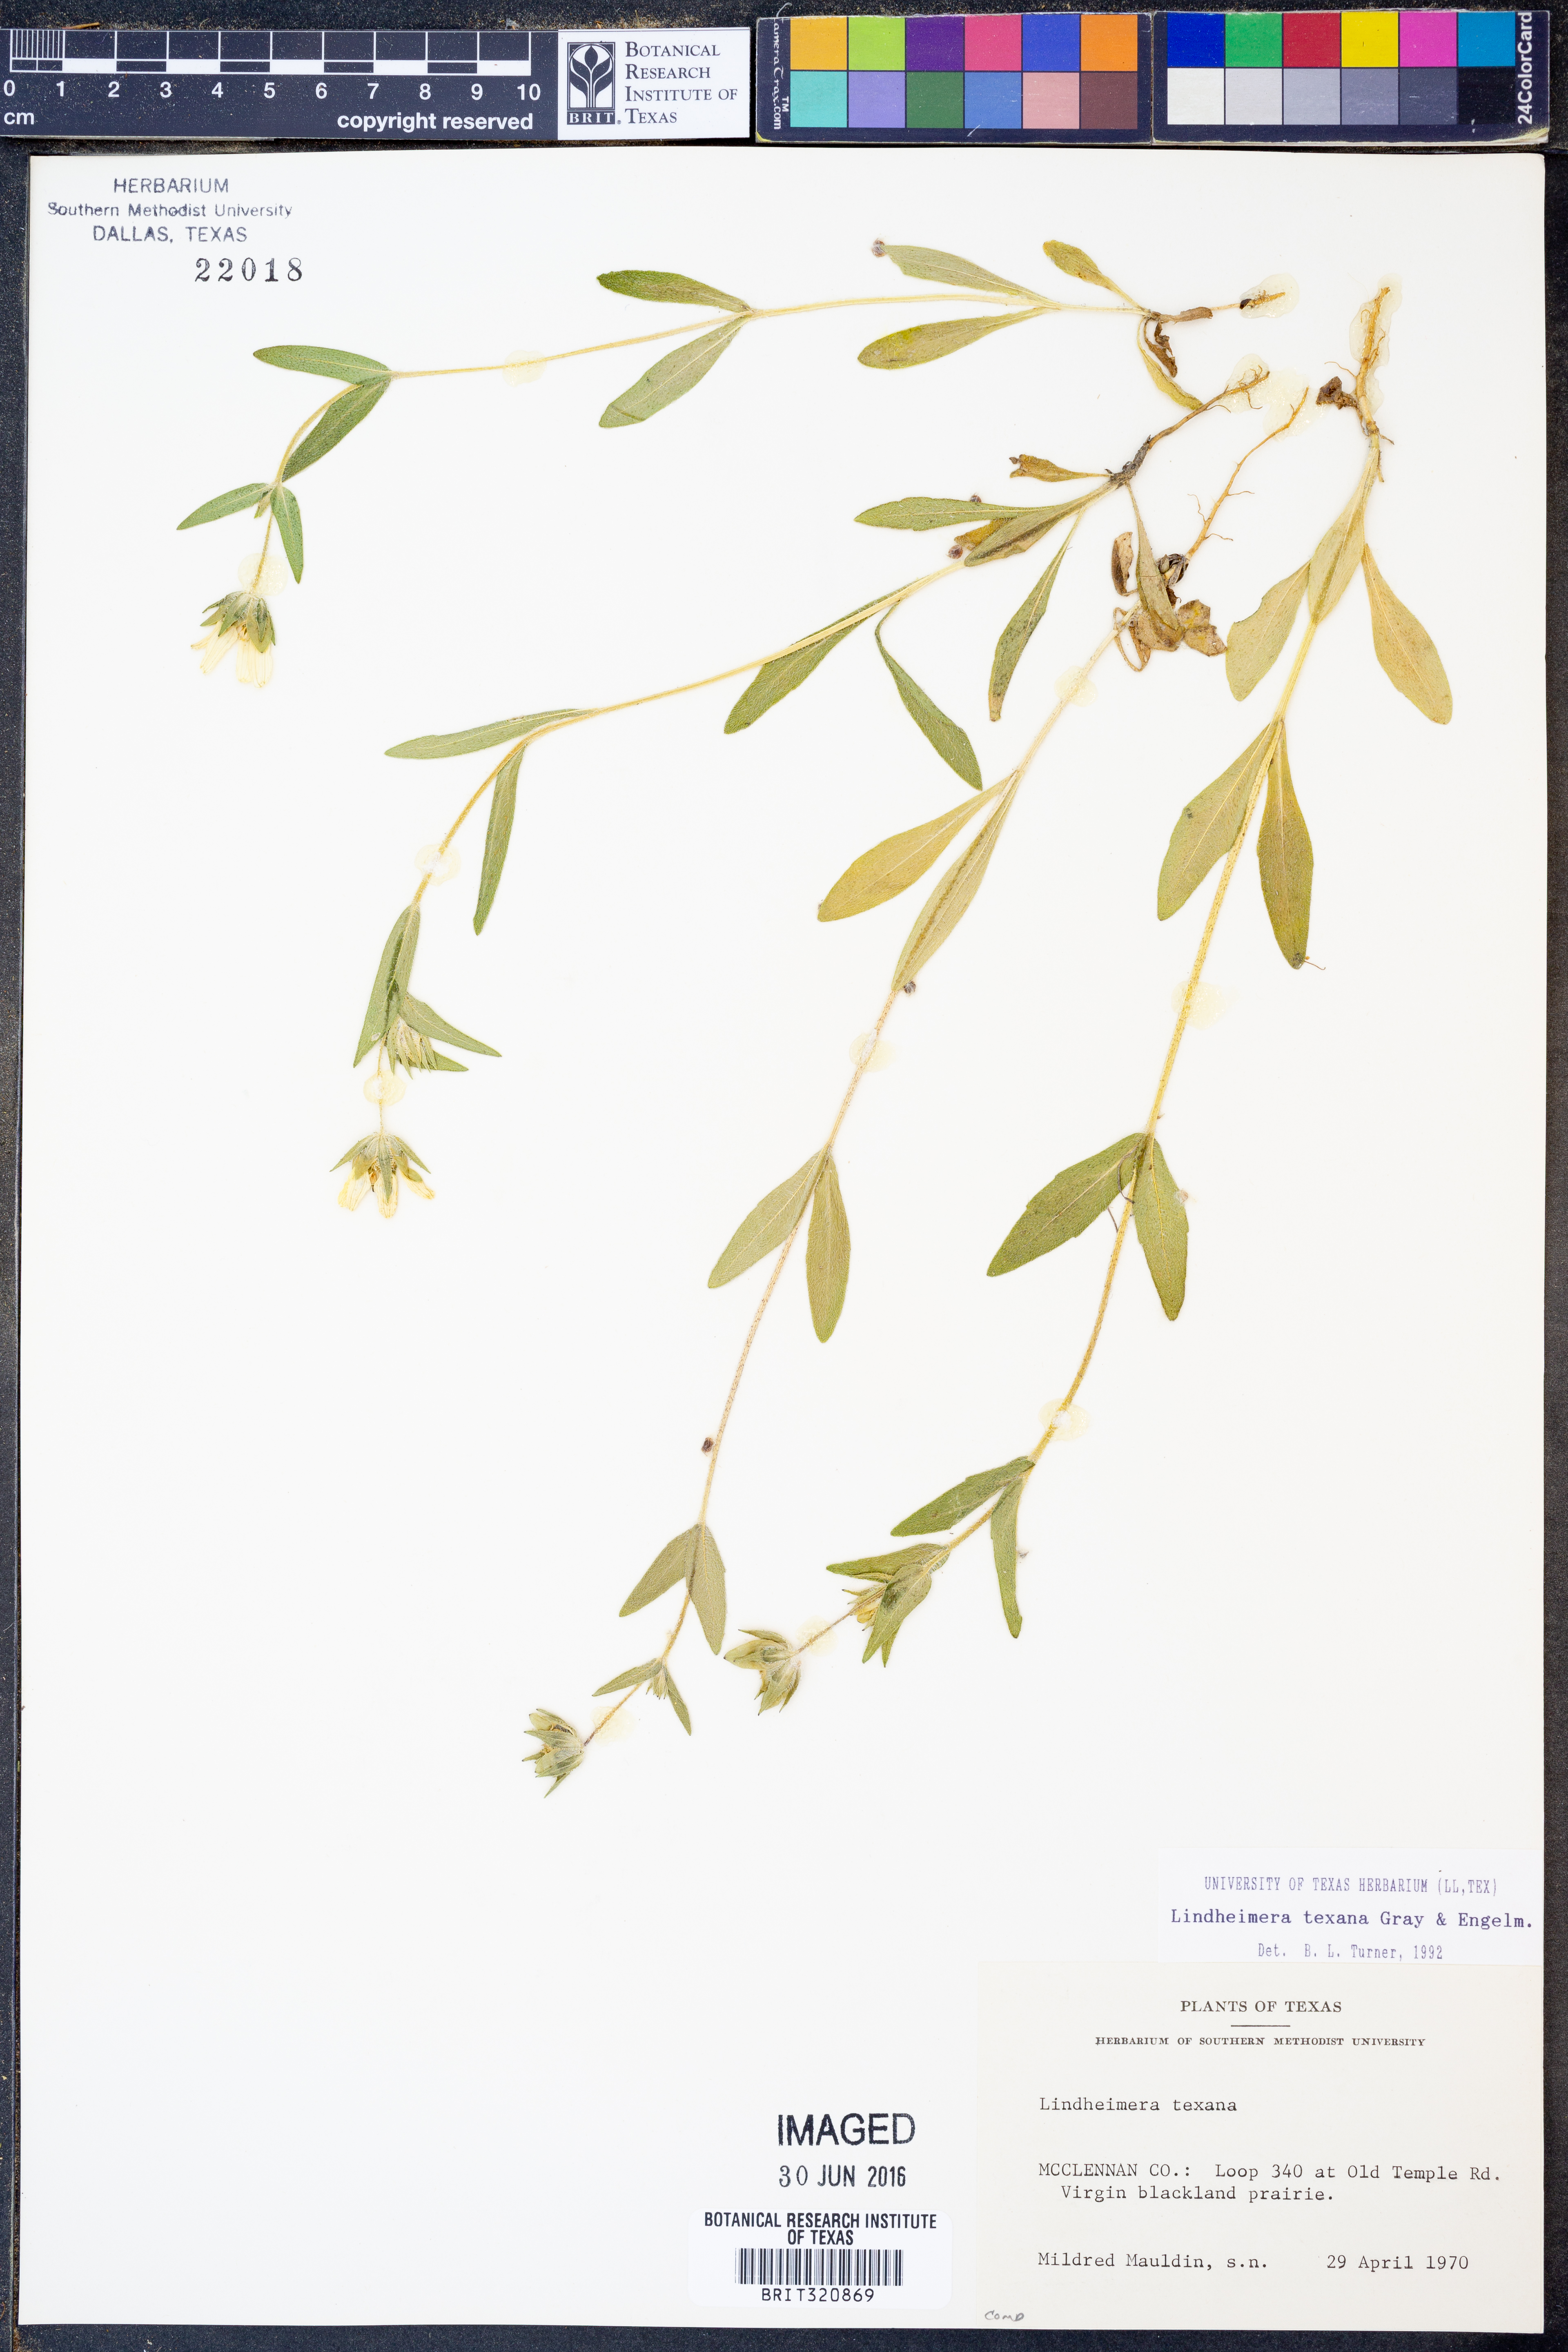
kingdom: Plantae
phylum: Tracheophyta
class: Magnoliopsida
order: Asterales
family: Asteraceae
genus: Lindheimera
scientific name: Lindheimera texana
